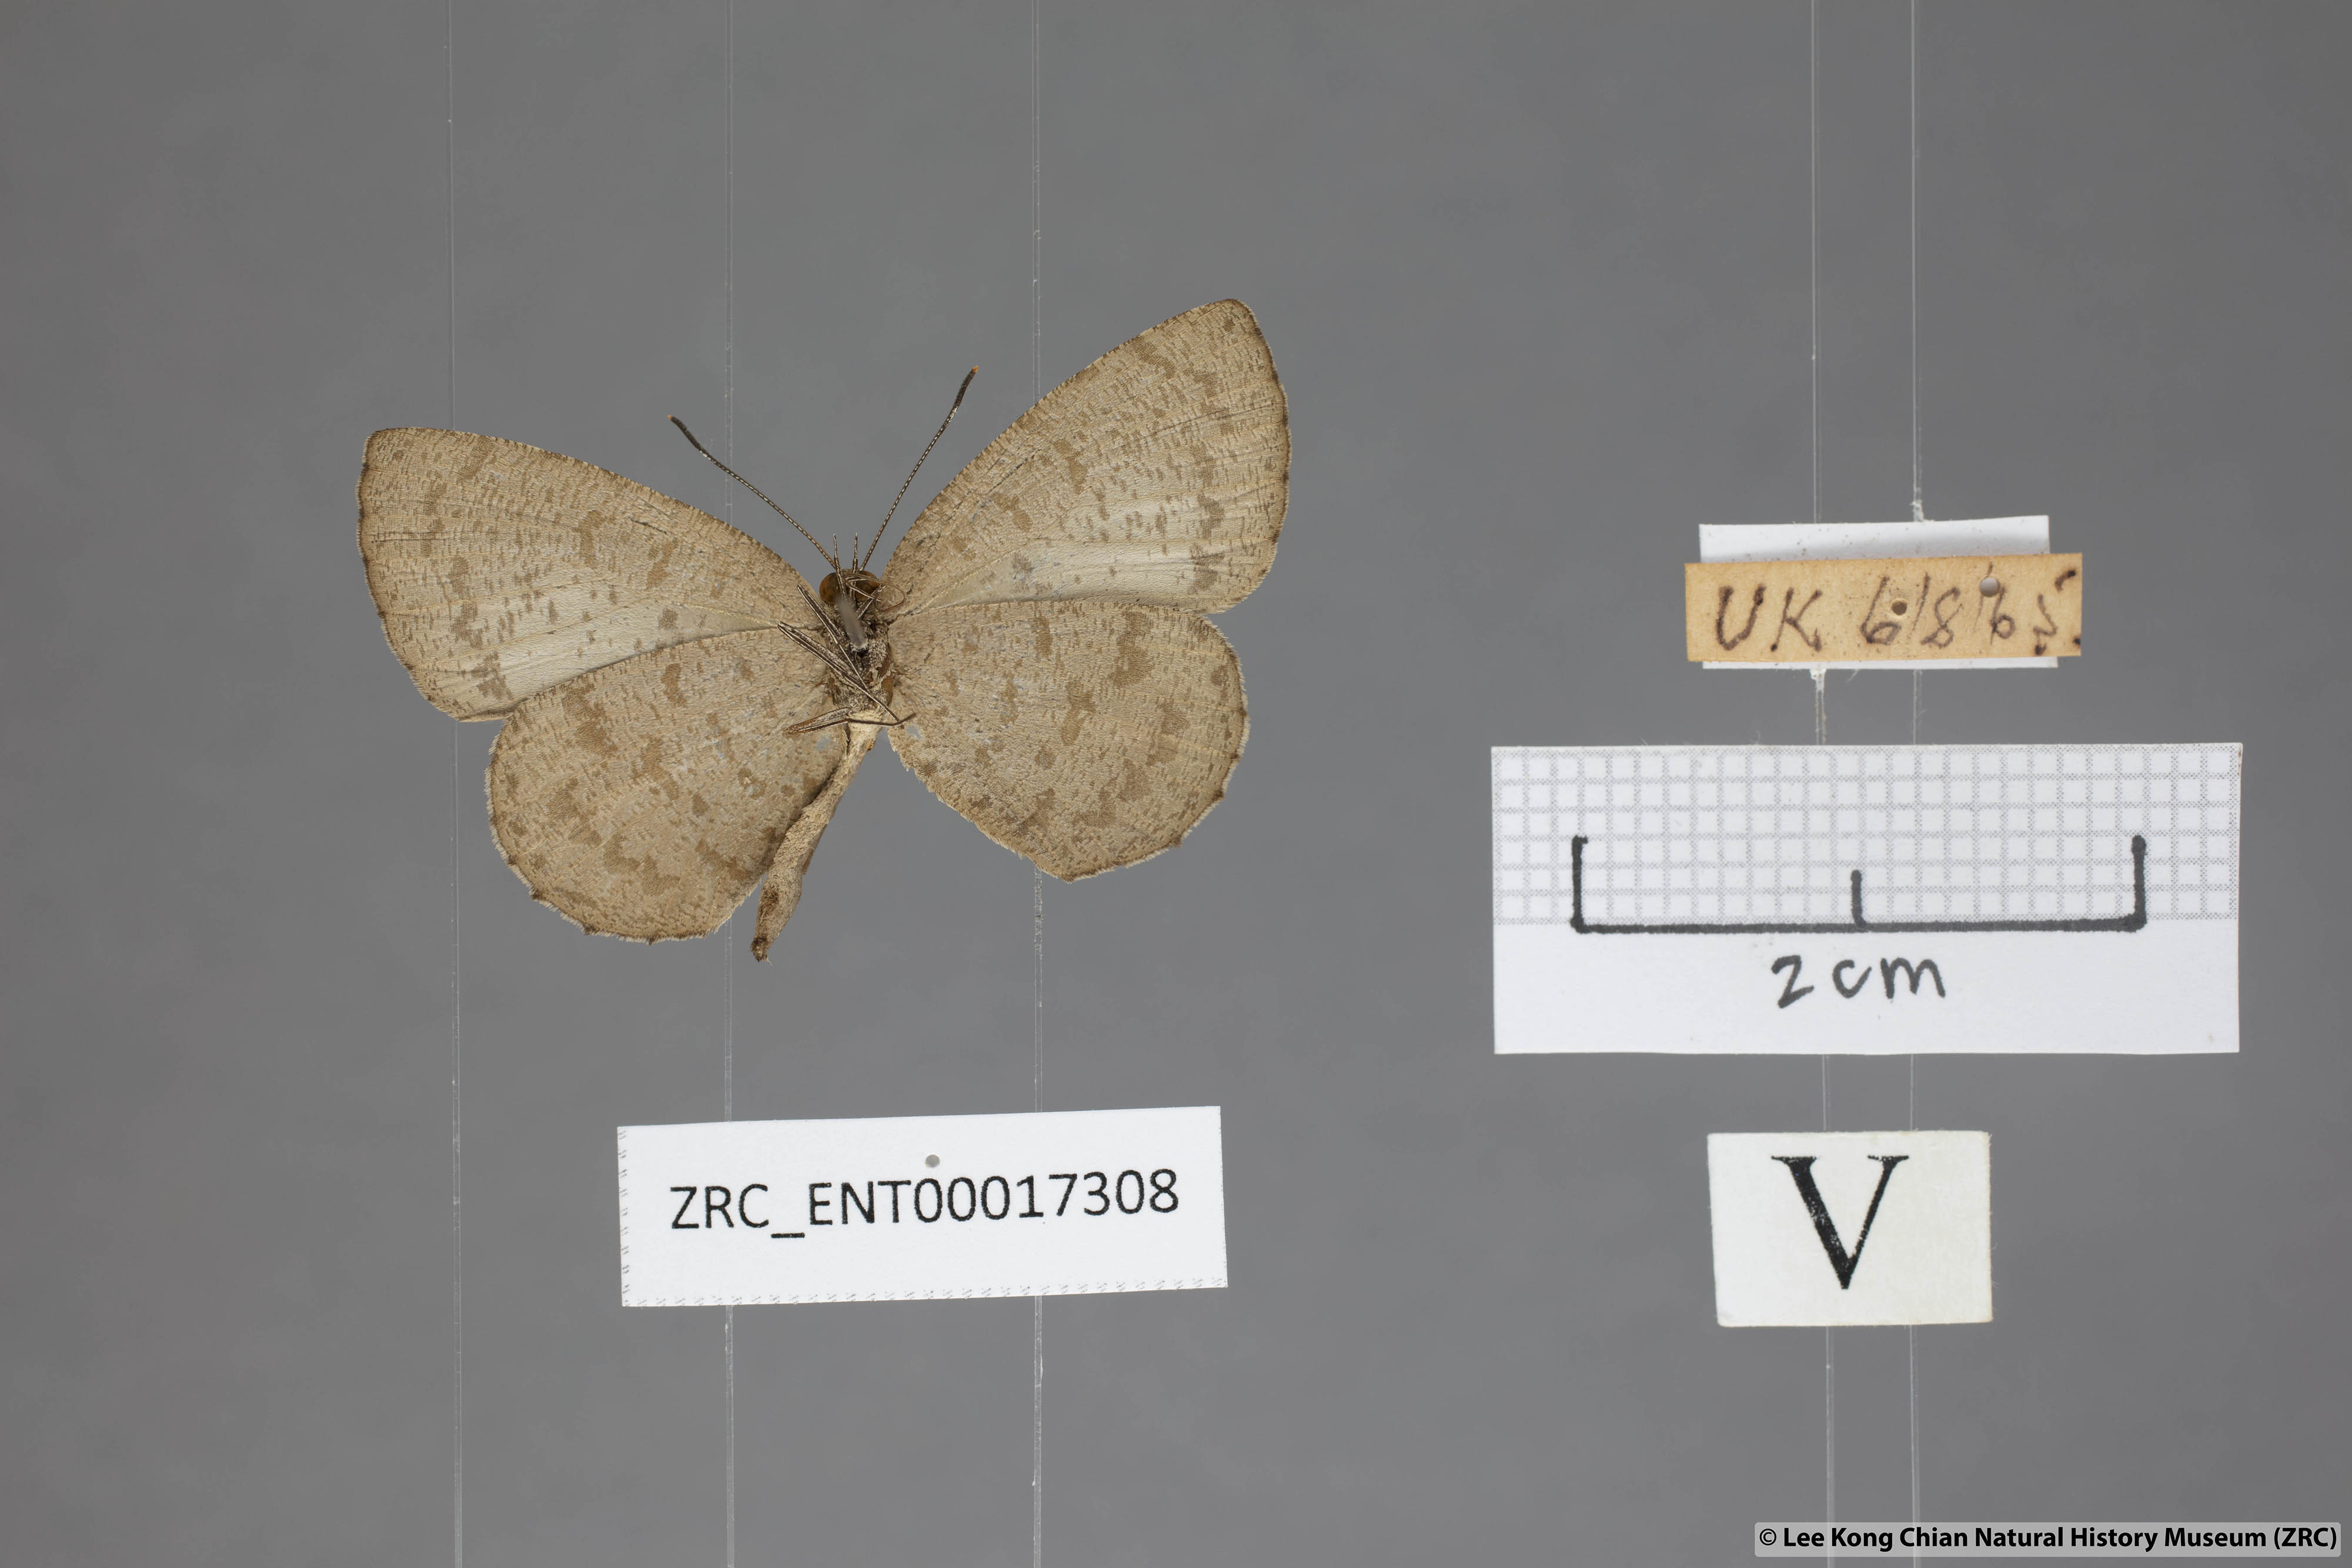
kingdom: Animalia
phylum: Arthropoda
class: Insecta
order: Lepidoptera
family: Lycaenidae
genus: Allotinus
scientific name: Allotinus subviolaceus
